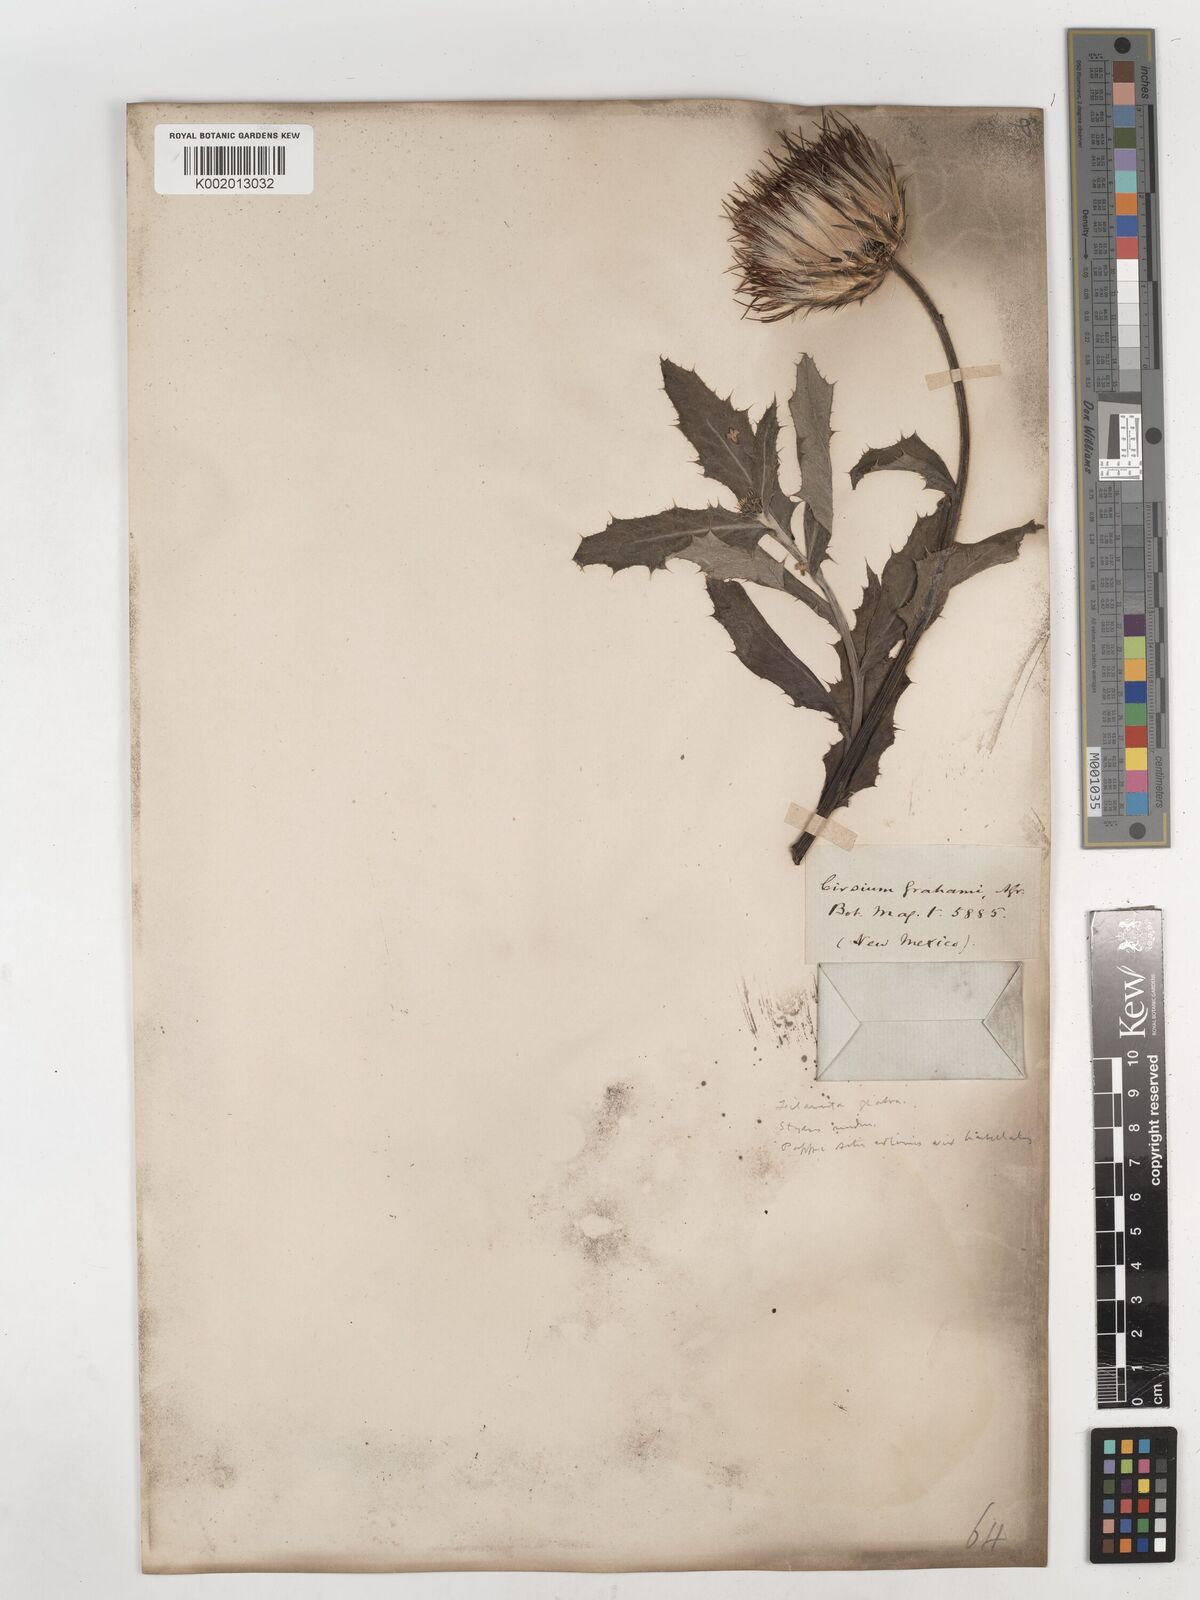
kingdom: Plantae
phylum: Tracheophyta
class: Magnoliopsida
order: Asterales
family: Asteraceae
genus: Cirsium
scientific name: Cirsium grahamii
